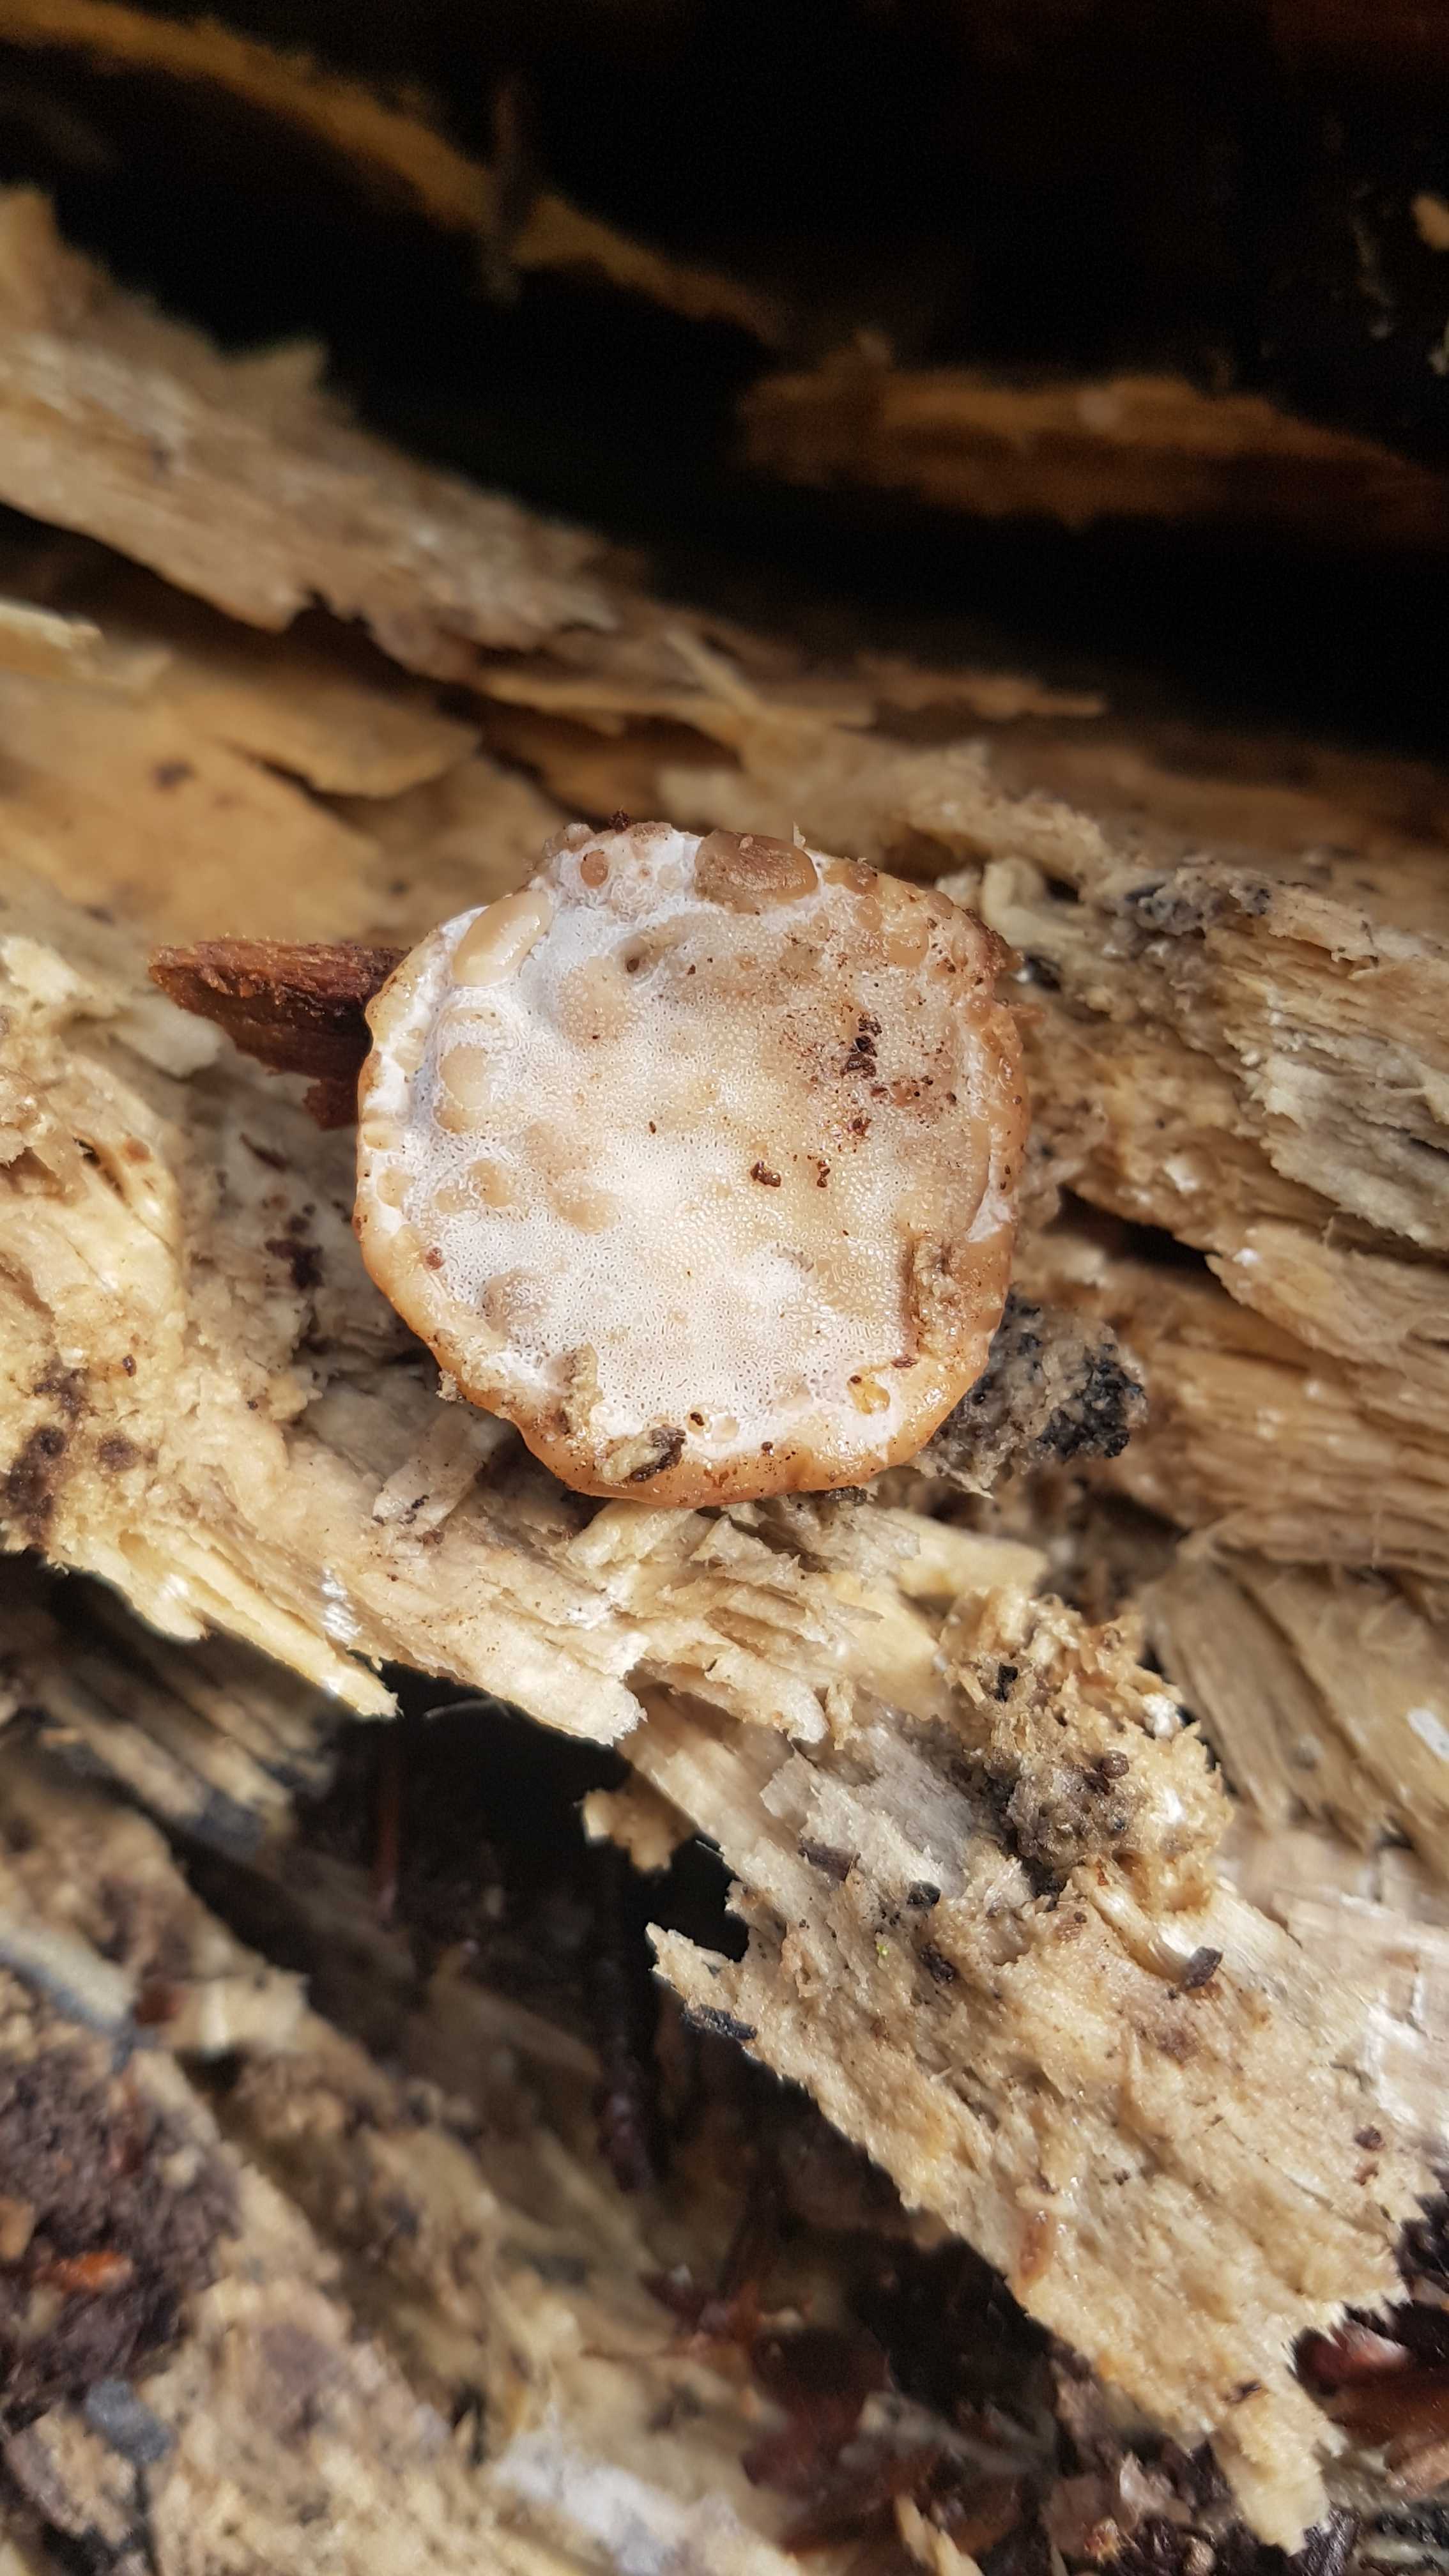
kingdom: Fungi
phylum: Basidiomycota
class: Agaricomycetes
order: Polyporales
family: Fomitopsidaceae
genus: Fomitopsis
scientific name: Fomitopsis pinicola
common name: randbæltet hovporesvamp
